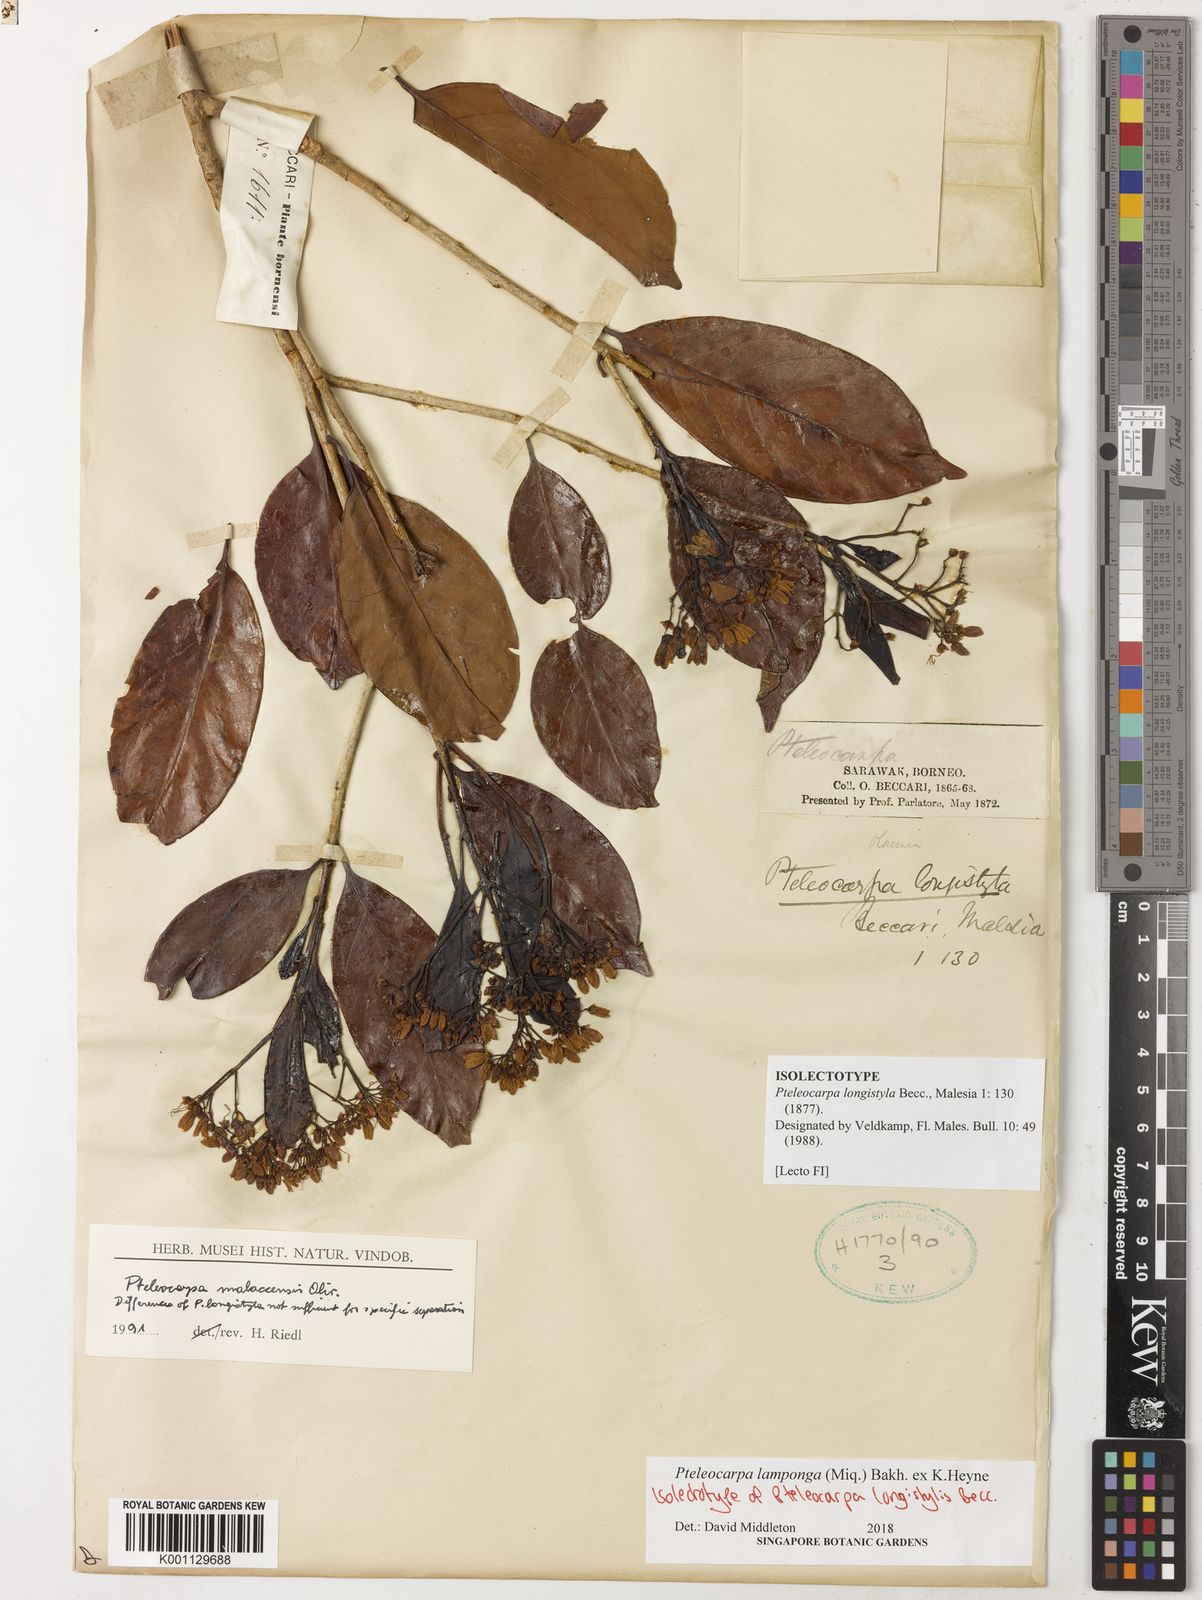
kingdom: Plantae
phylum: Tracheophyta
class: Magnoliopsida
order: Gentianales
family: Gelsemiaceae
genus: Pteleocarpa
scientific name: Pteleocarpa lamponga
